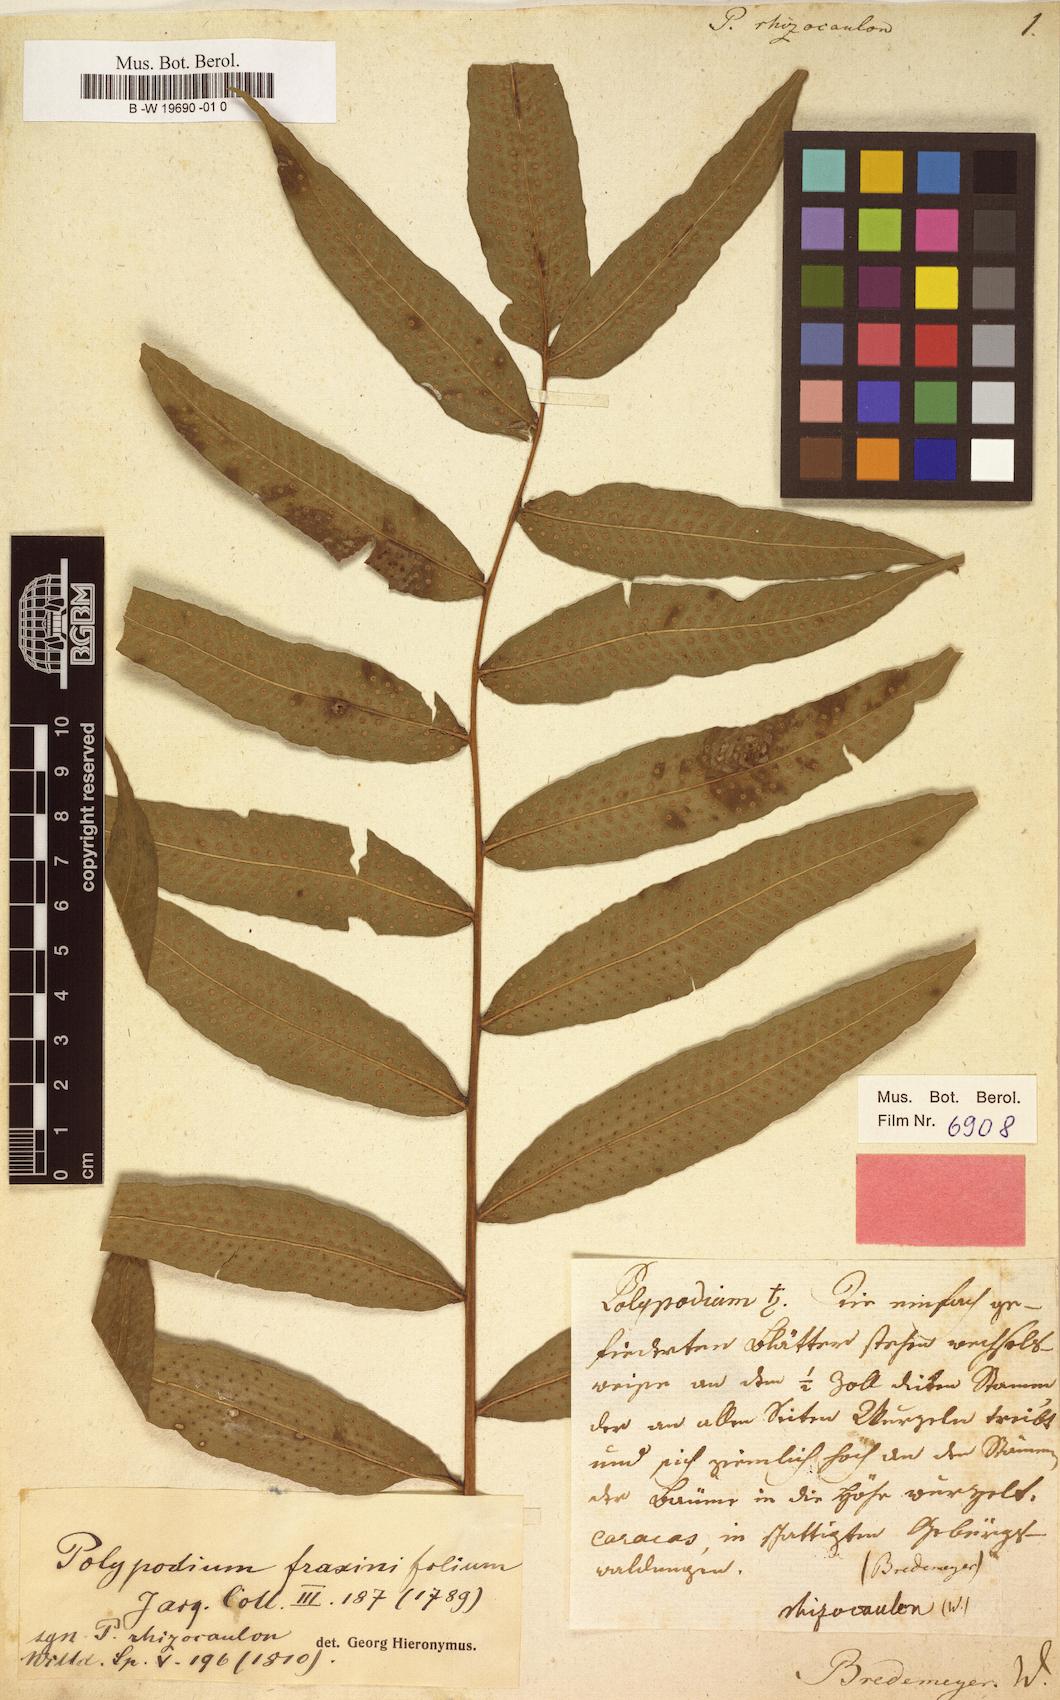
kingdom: Plantae
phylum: Tracheophyta
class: Polypodiopsida
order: Polypodiales
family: Polypodiaceae
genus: Serpocaulon
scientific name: Serpocaulon fraxinifolium
